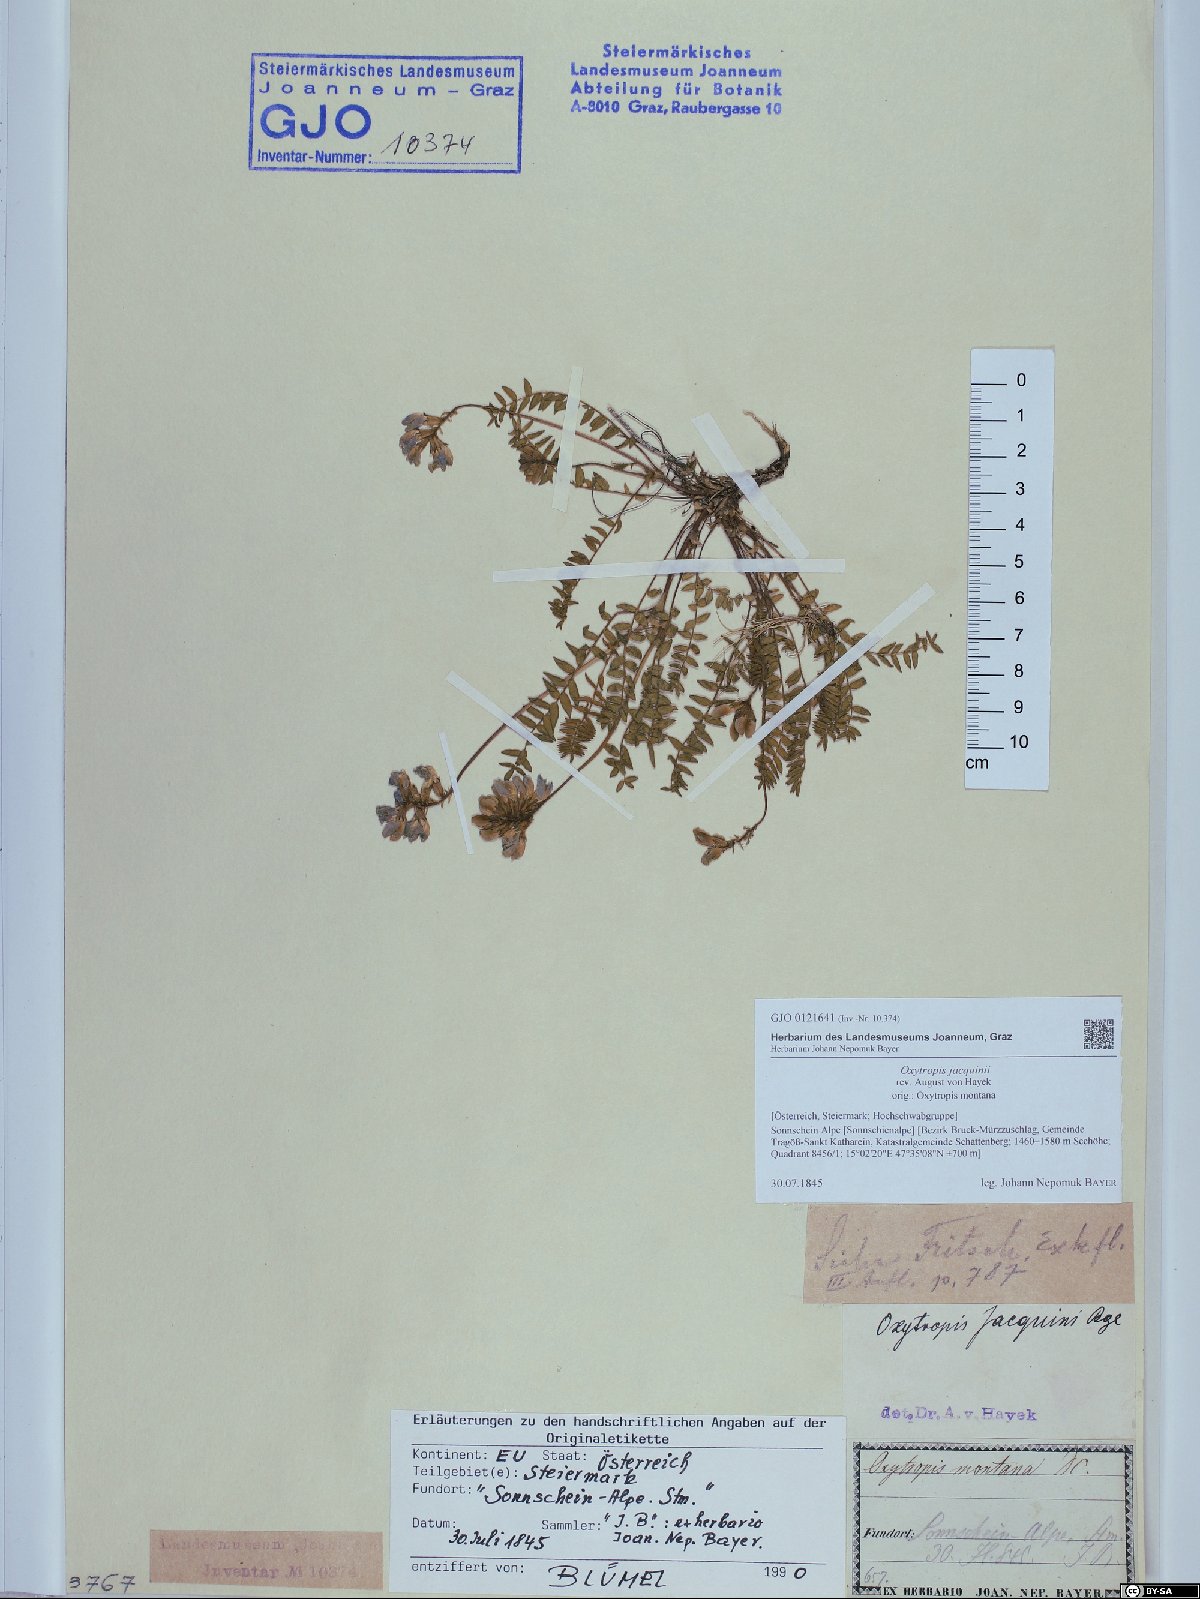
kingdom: Plantae
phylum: Tracheophyta
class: Magnoliopsida
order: Fabales
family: Fabaceae
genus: Oxytropis
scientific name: Oxytropis montana
